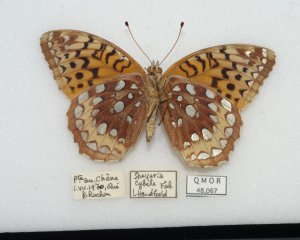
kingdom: Animalia
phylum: Arthropoda
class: Insecta
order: Lepidoptera
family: Nymphalidae
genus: Speyeria
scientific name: Speyeria cybele
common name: Great Spangled Fritillary
